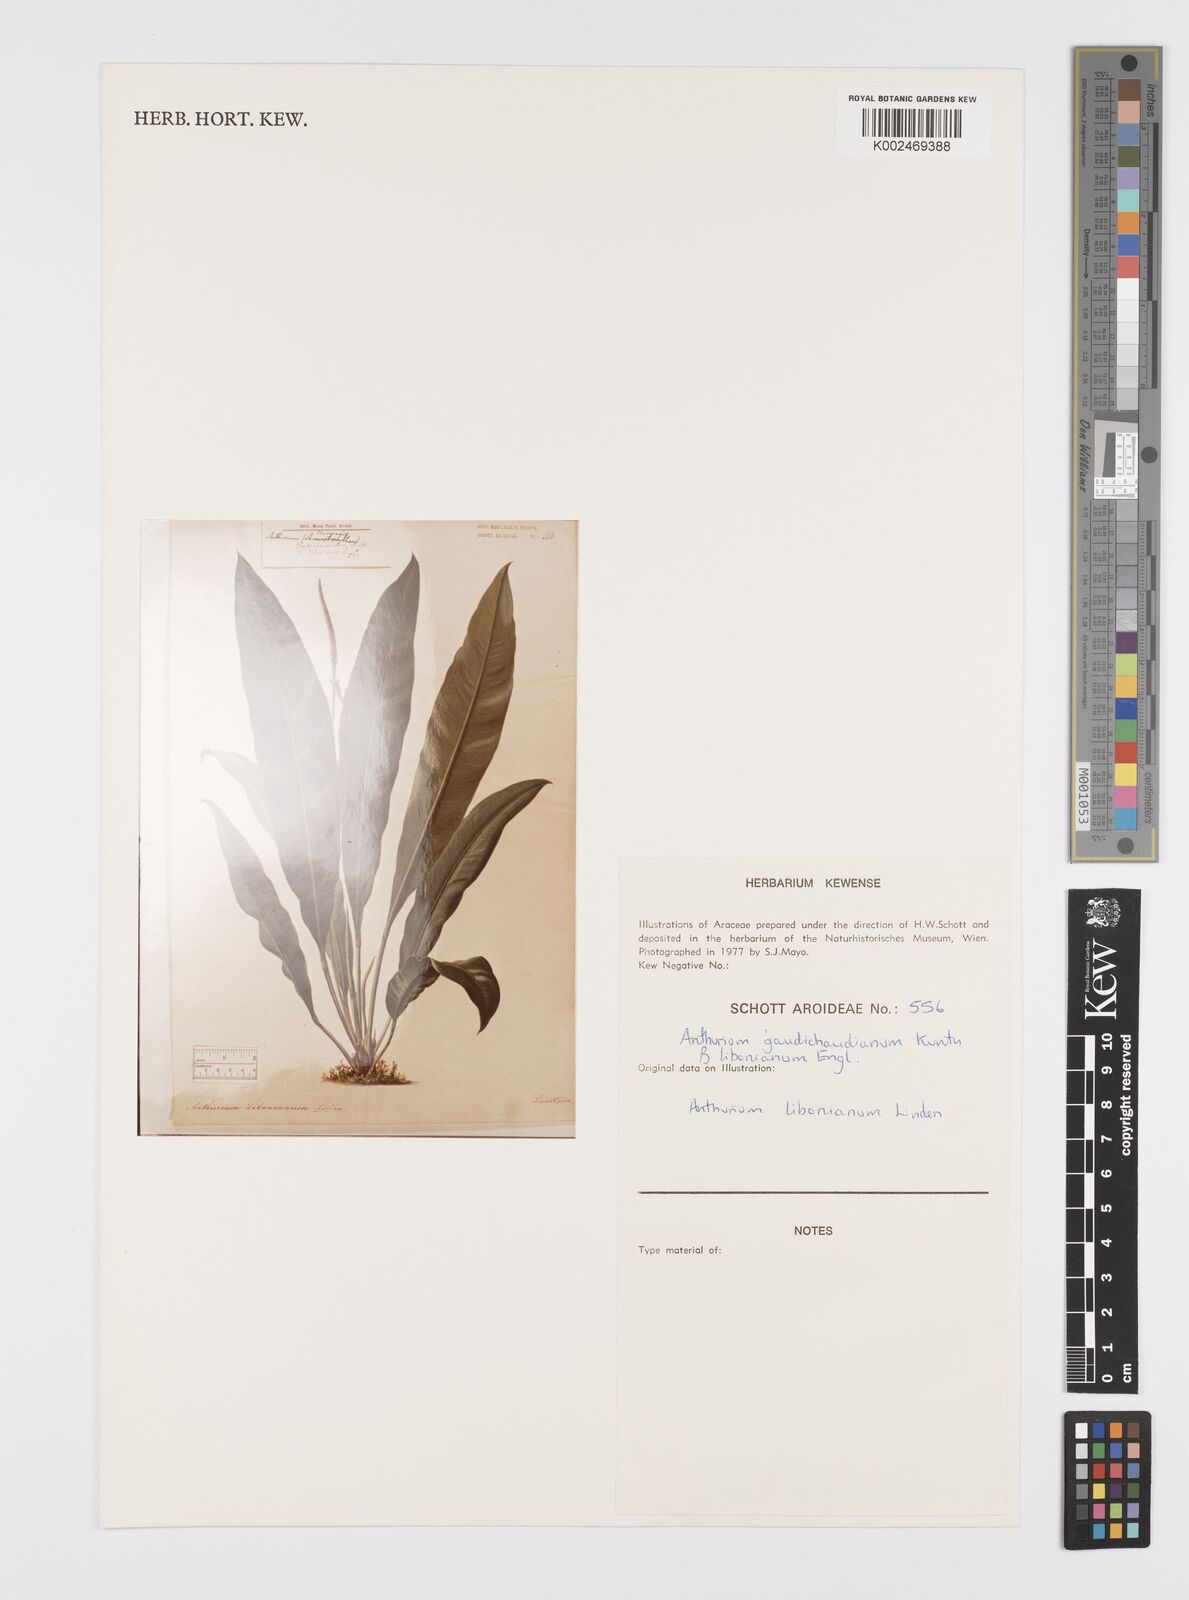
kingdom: Plantae
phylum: Tracheophyta
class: Liliopsida
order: Alismatales
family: Araceae
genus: Anthurium
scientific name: Anthurium gaudichaudianum
